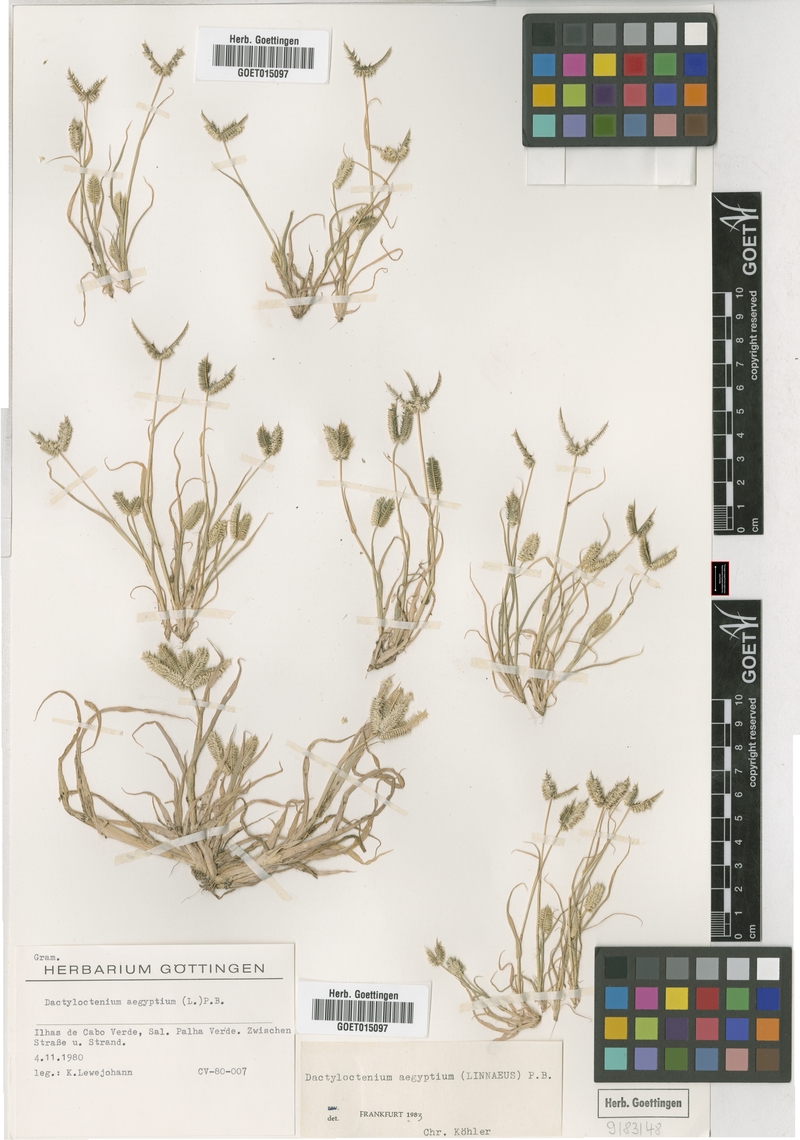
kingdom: Plantae
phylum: Tracheophyta
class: Liliopsida
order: Poales
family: Poaceae
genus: Dactyloctenium
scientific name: Dactyloctenium aegyptium
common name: Egyptian grass
